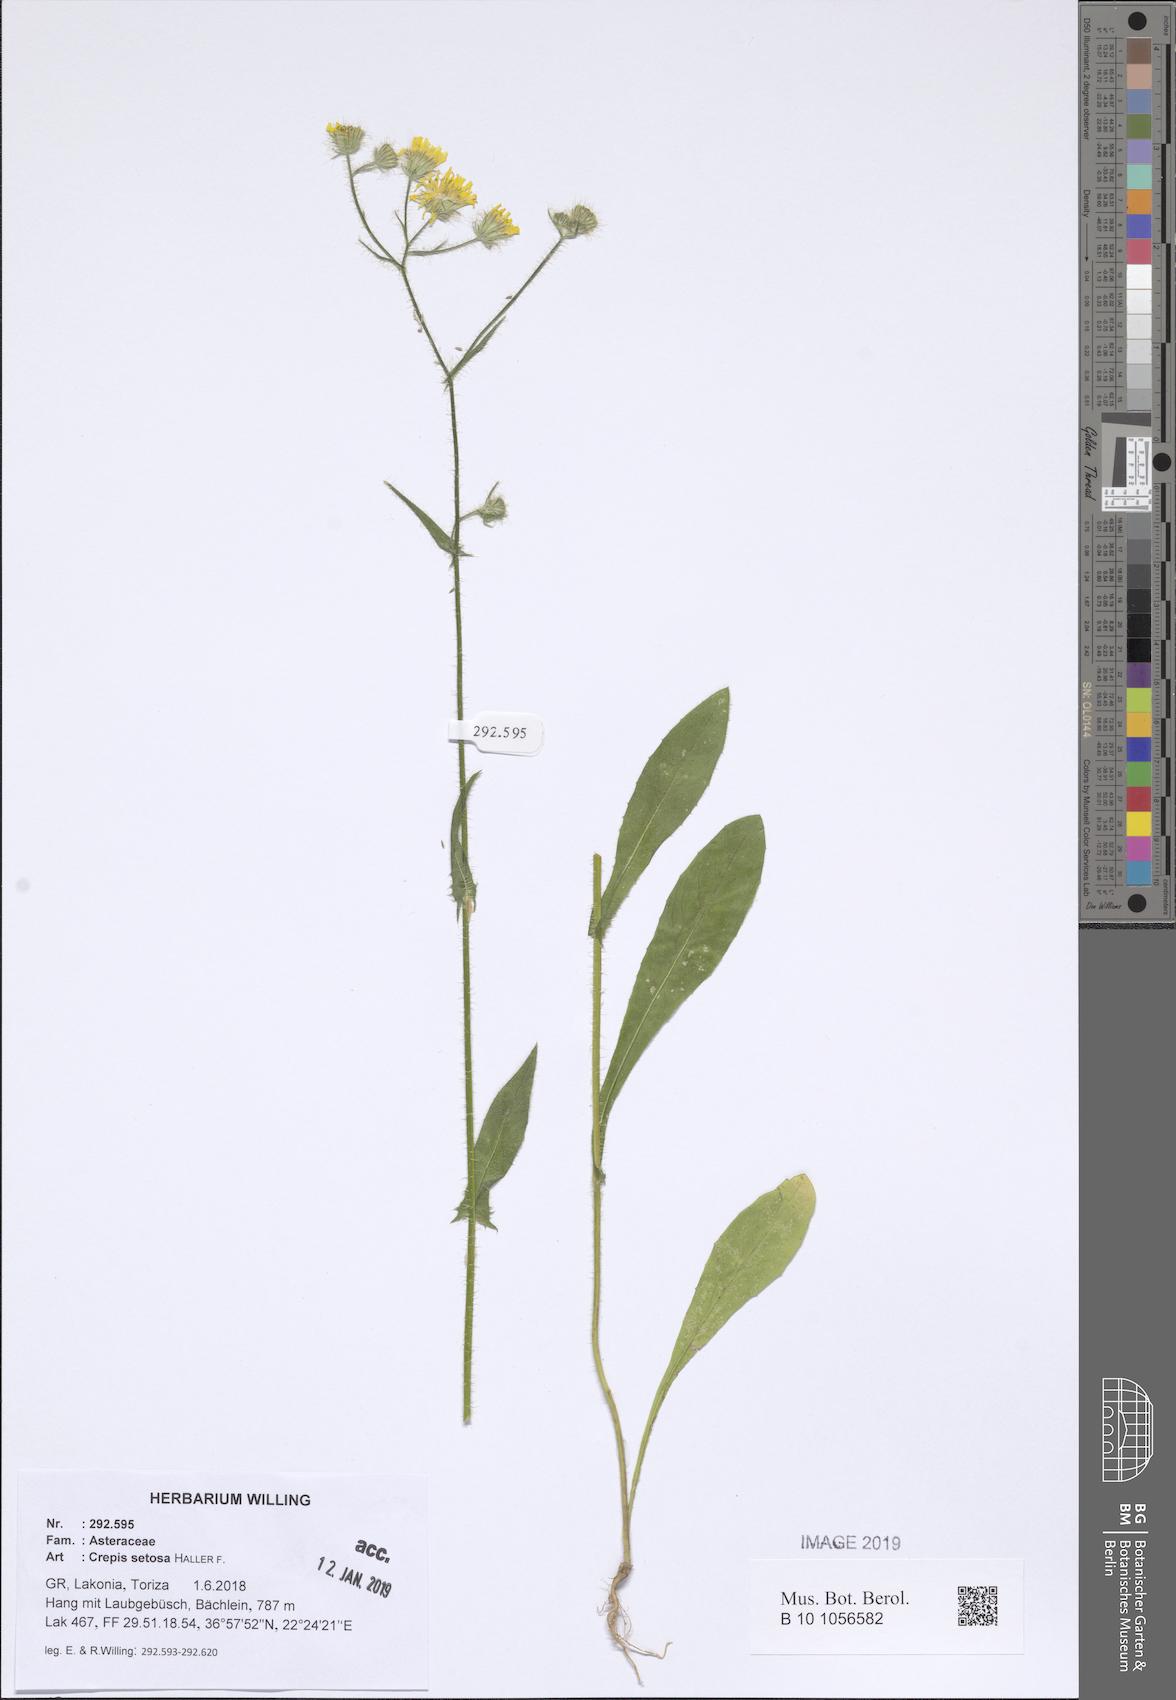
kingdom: Plantae
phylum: Tracheophyta
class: Magnoliopsida
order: Asterales
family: Asteraceae
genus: Crepis
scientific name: Crepis setosa
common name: Bristly hawk's-beard
